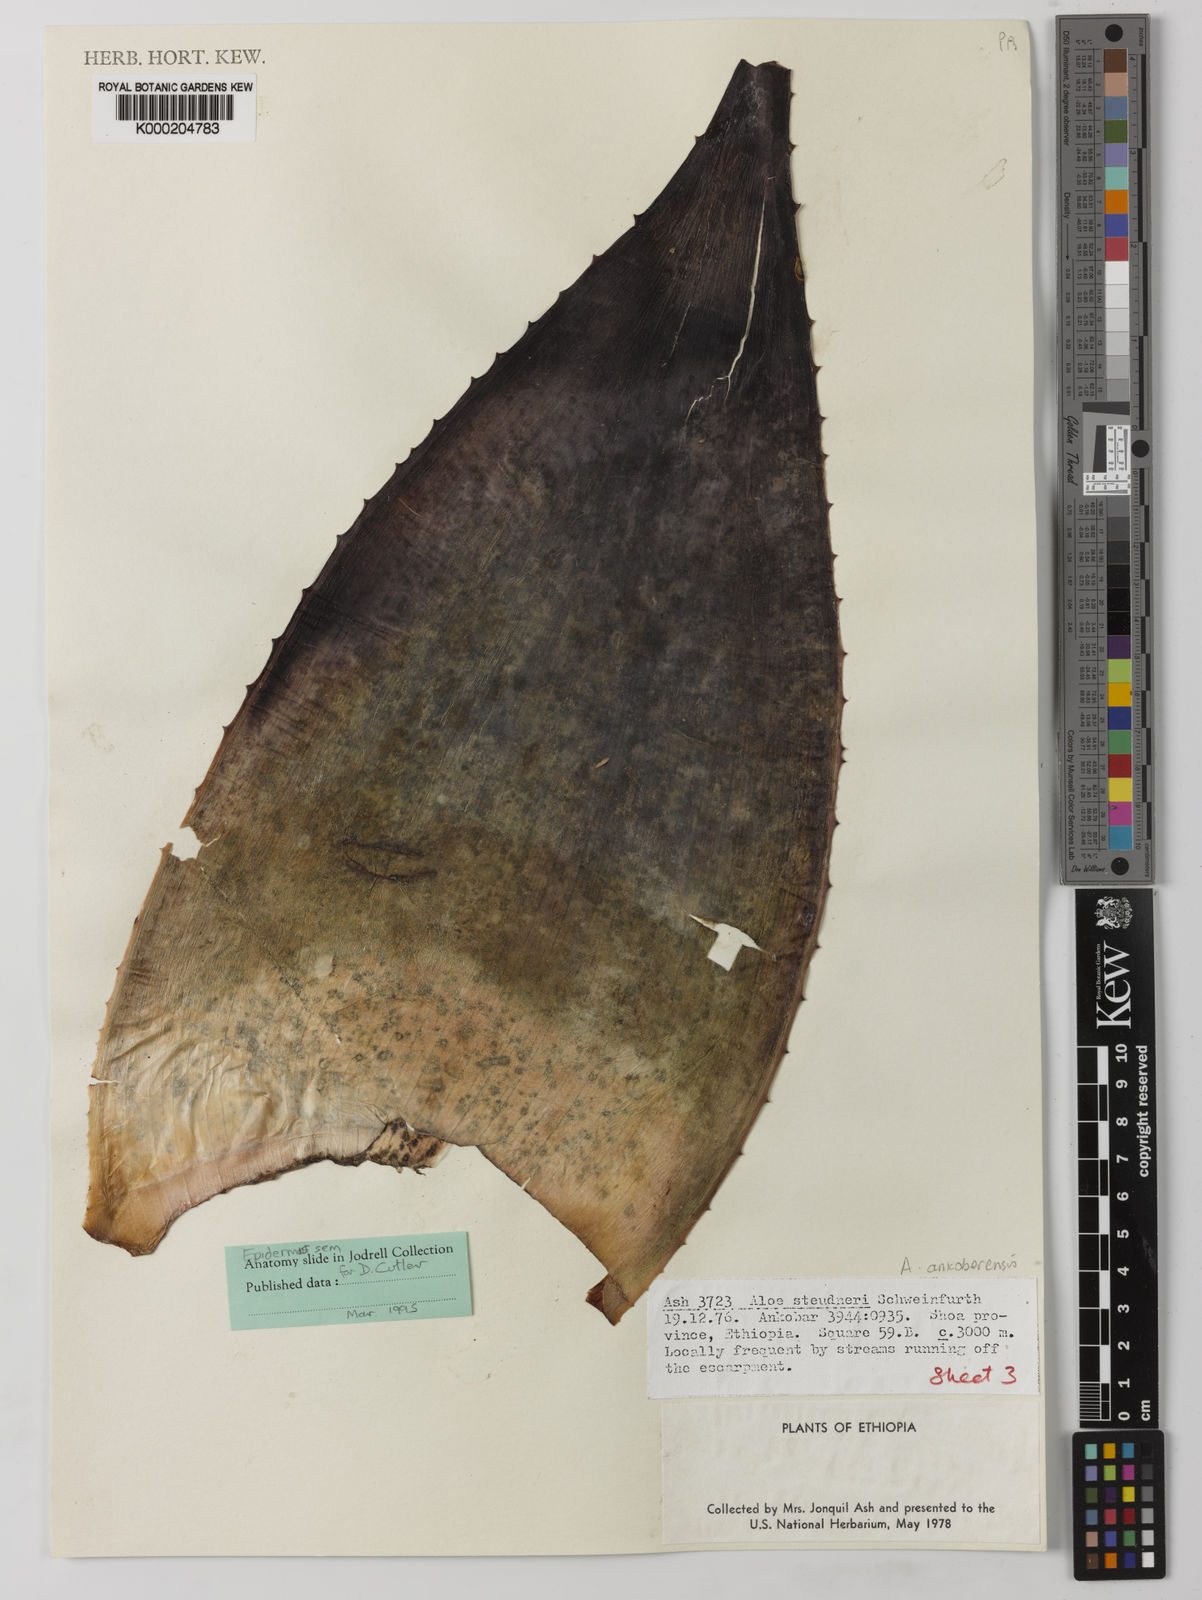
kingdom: Plantae
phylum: Tracheophyta
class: Liliopsida
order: Asparagales
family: Asphodelaceae
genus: Aloe
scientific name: Aloe ankoberensis
